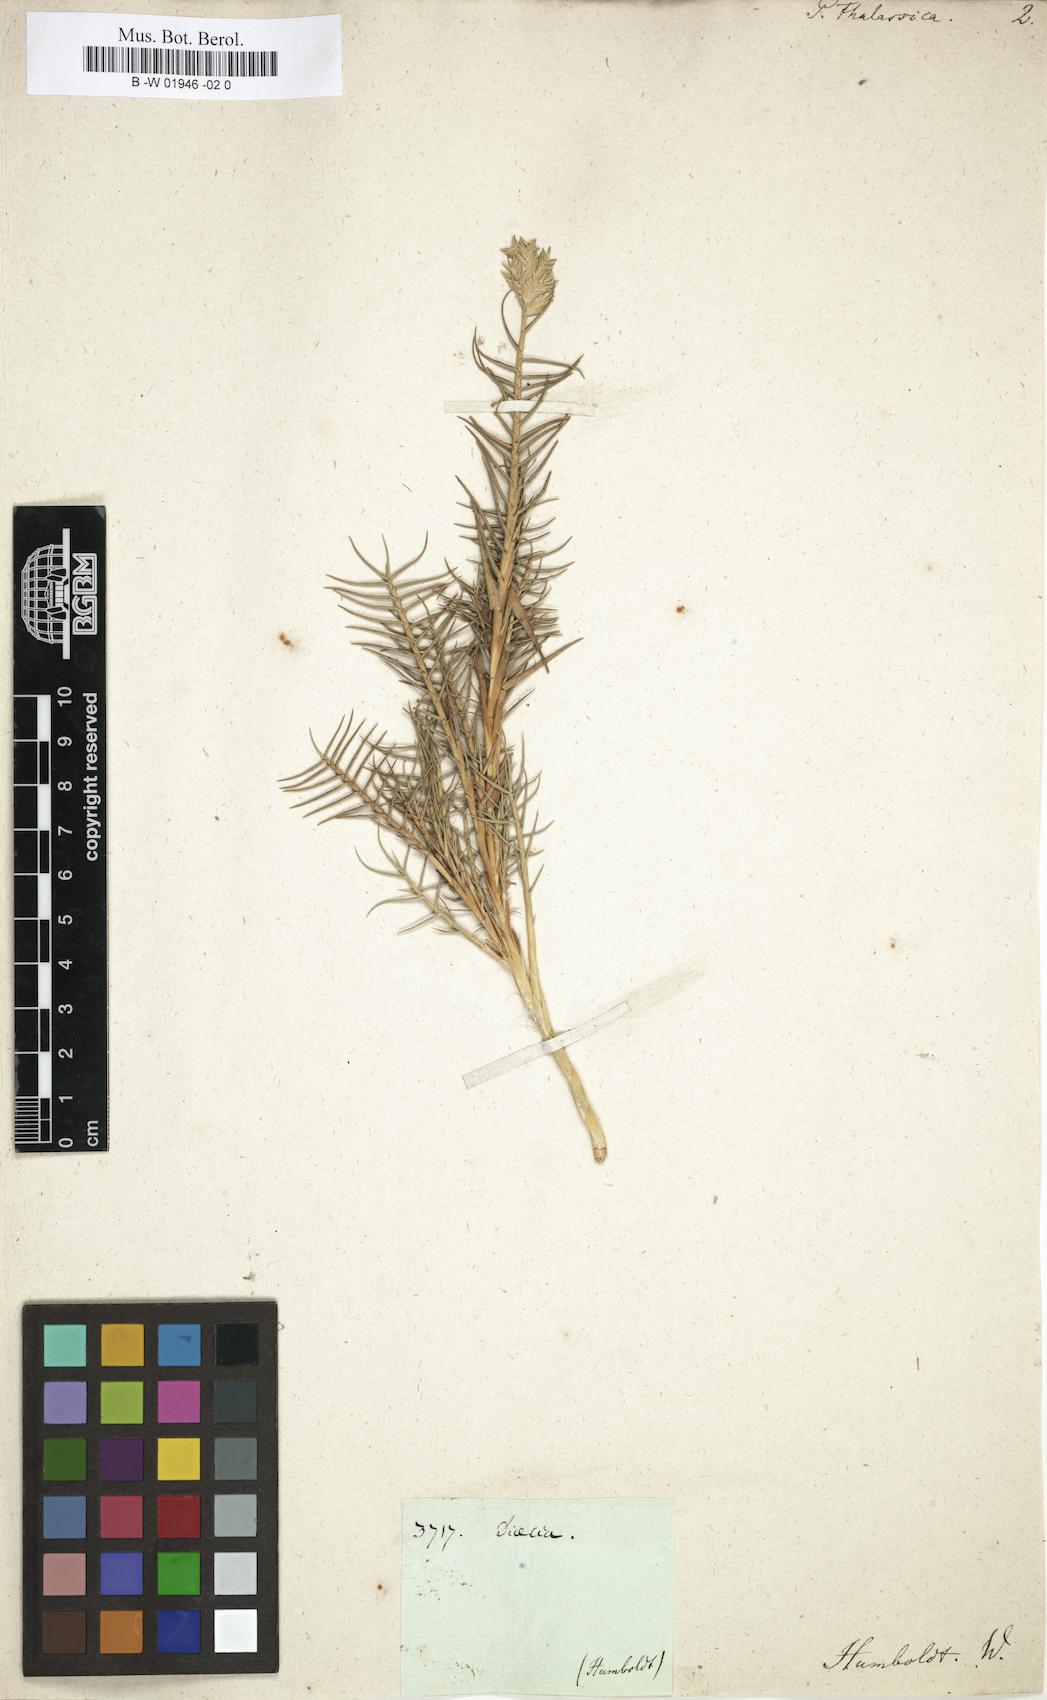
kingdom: Plantae
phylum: Tracheophyta
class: Liliopsida
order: Poales
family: Poaceae
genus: Distichlis
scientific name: Distichlis spicata
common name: Saltgrass
